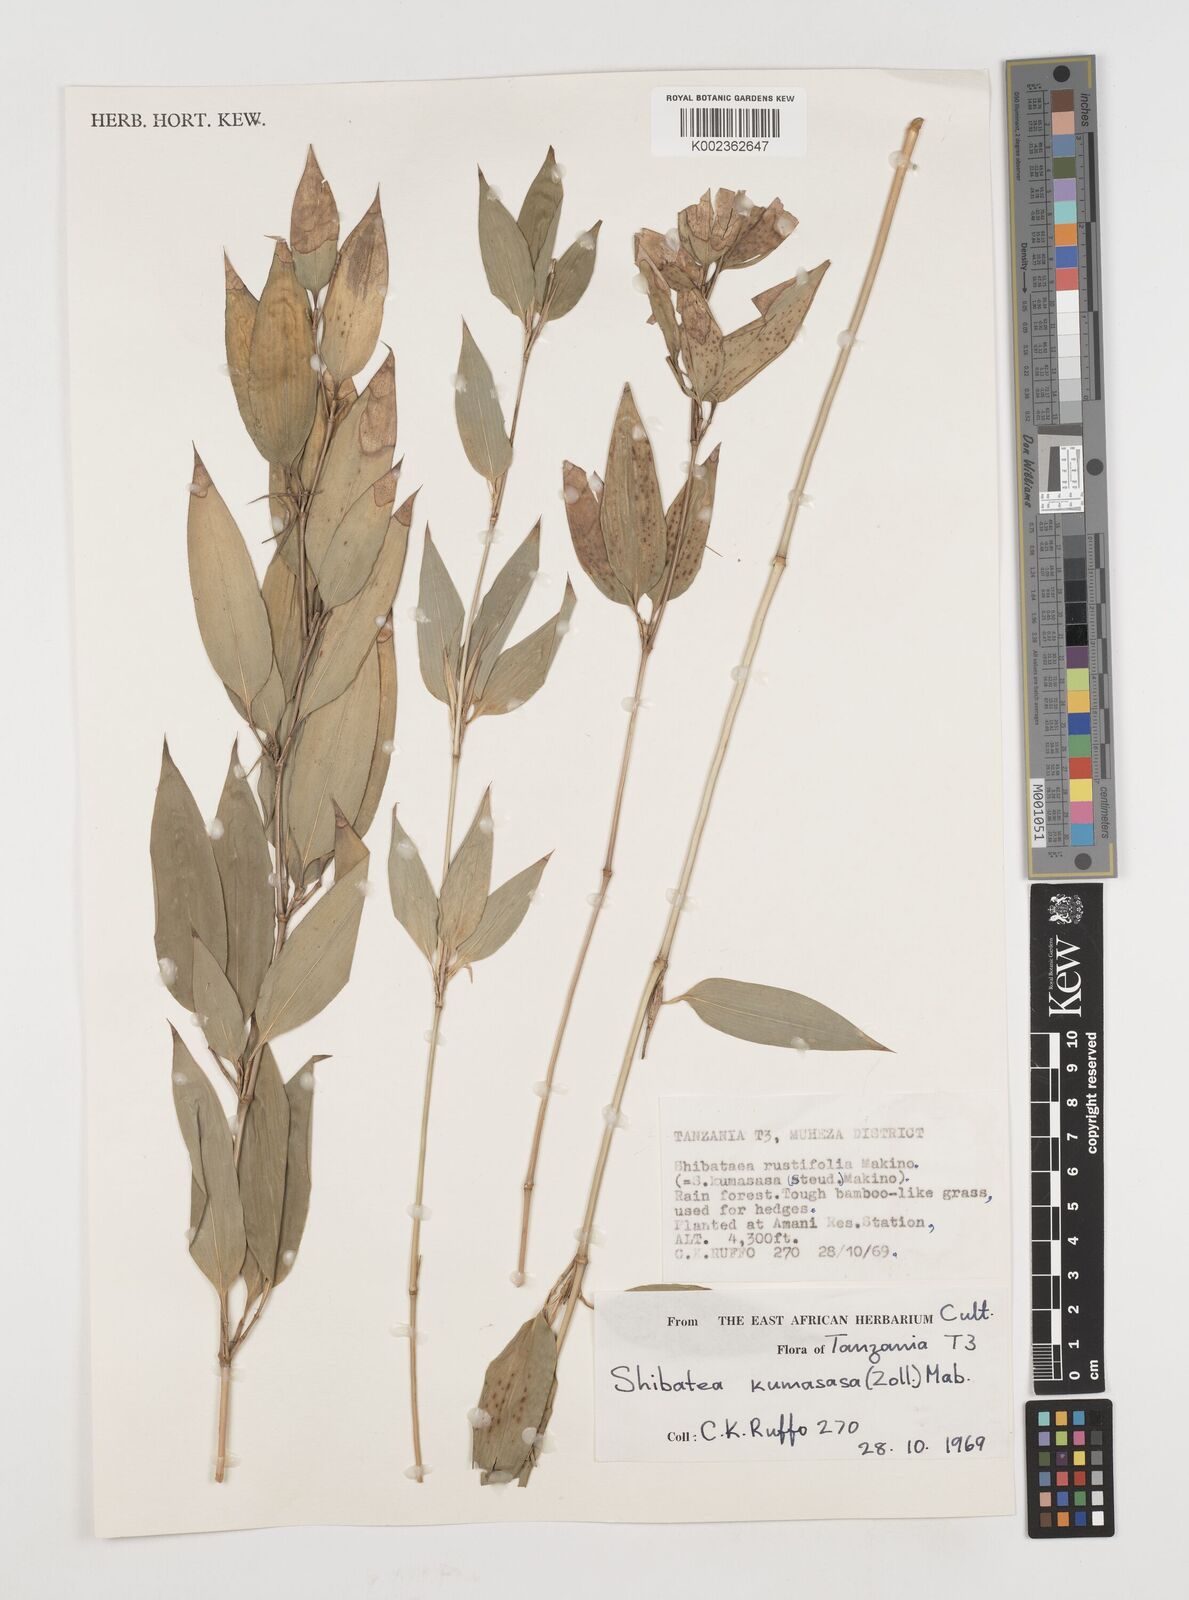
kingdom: Plantae
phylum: Tracheophyta
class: Liliopsida
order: Poales
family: Poaceae
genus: Shibataea
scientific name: Shibataea kumasasa
